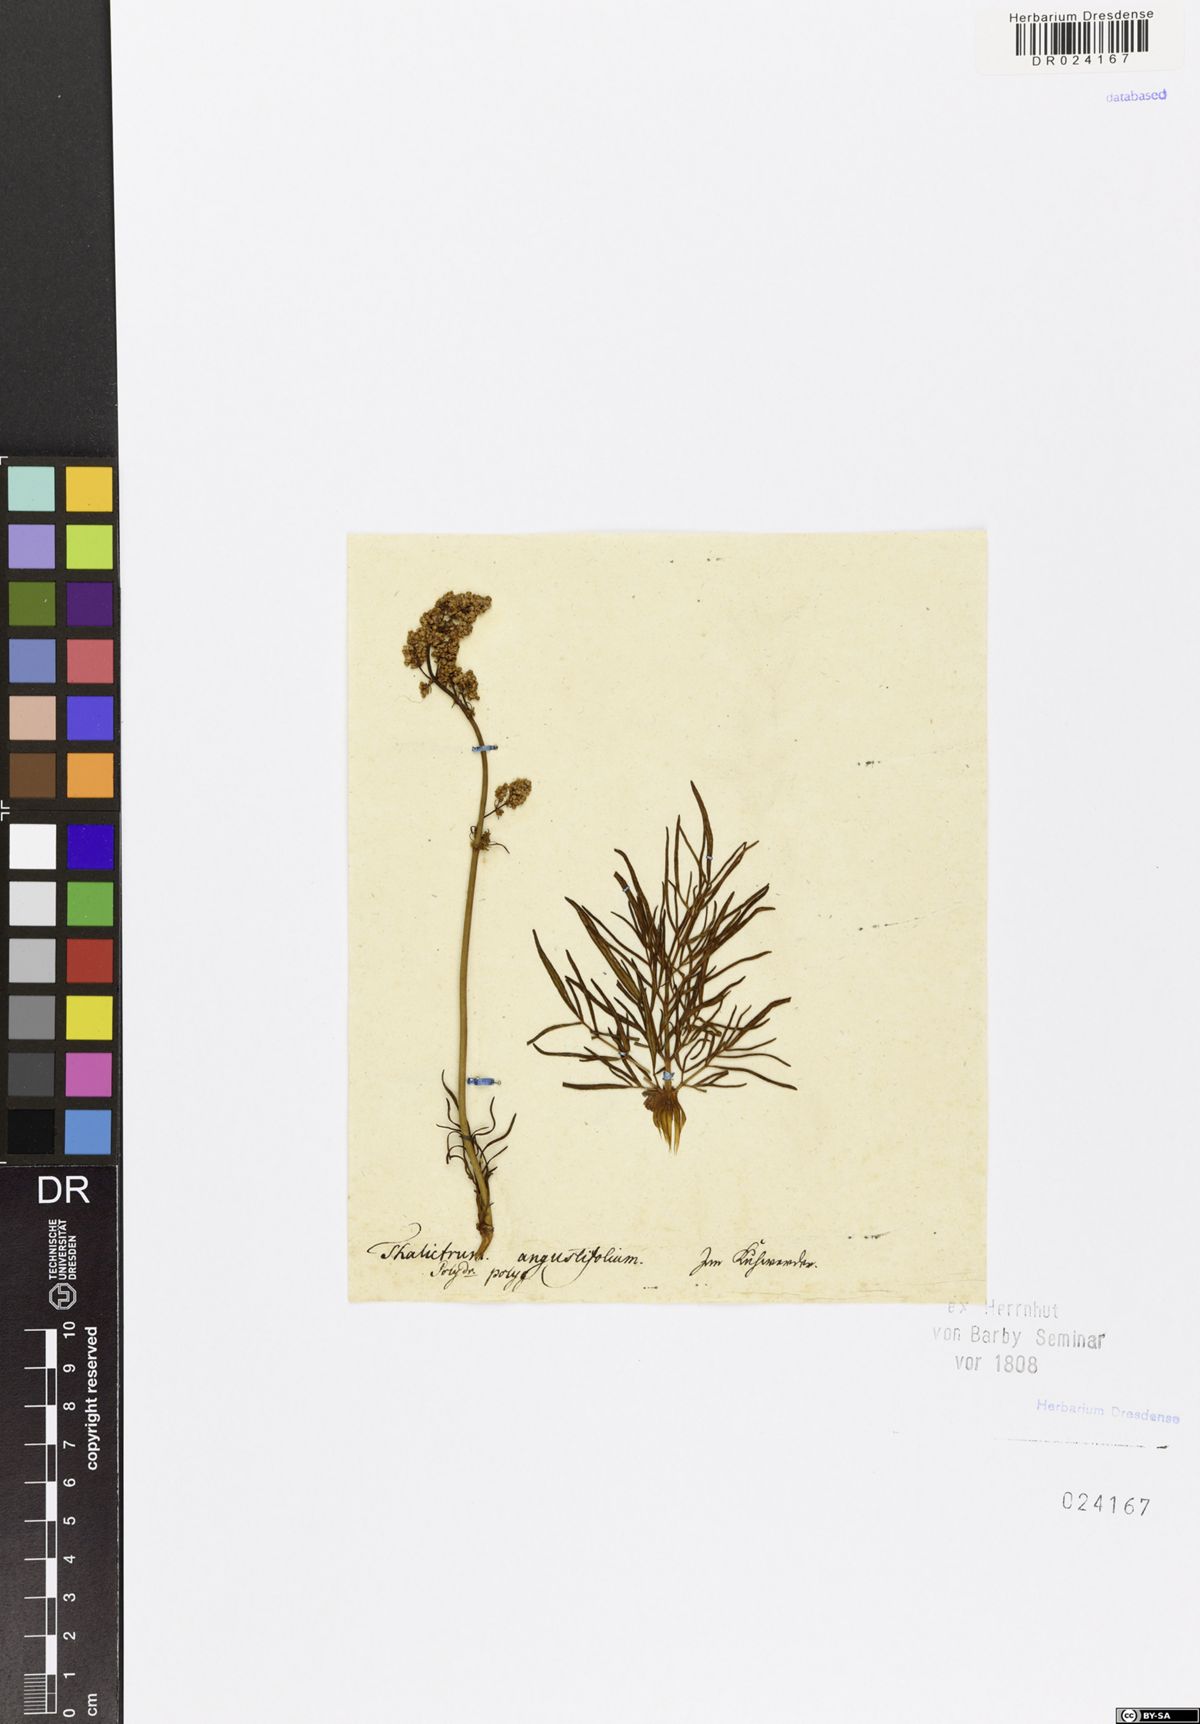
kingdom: Plantae
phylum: Tracheophyta
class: Magnoliopsida
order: Ranunculales
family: Ranunculaceae
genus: Thalictrum
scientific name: Thalictrum lucidum
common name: Shining meadow-rue
